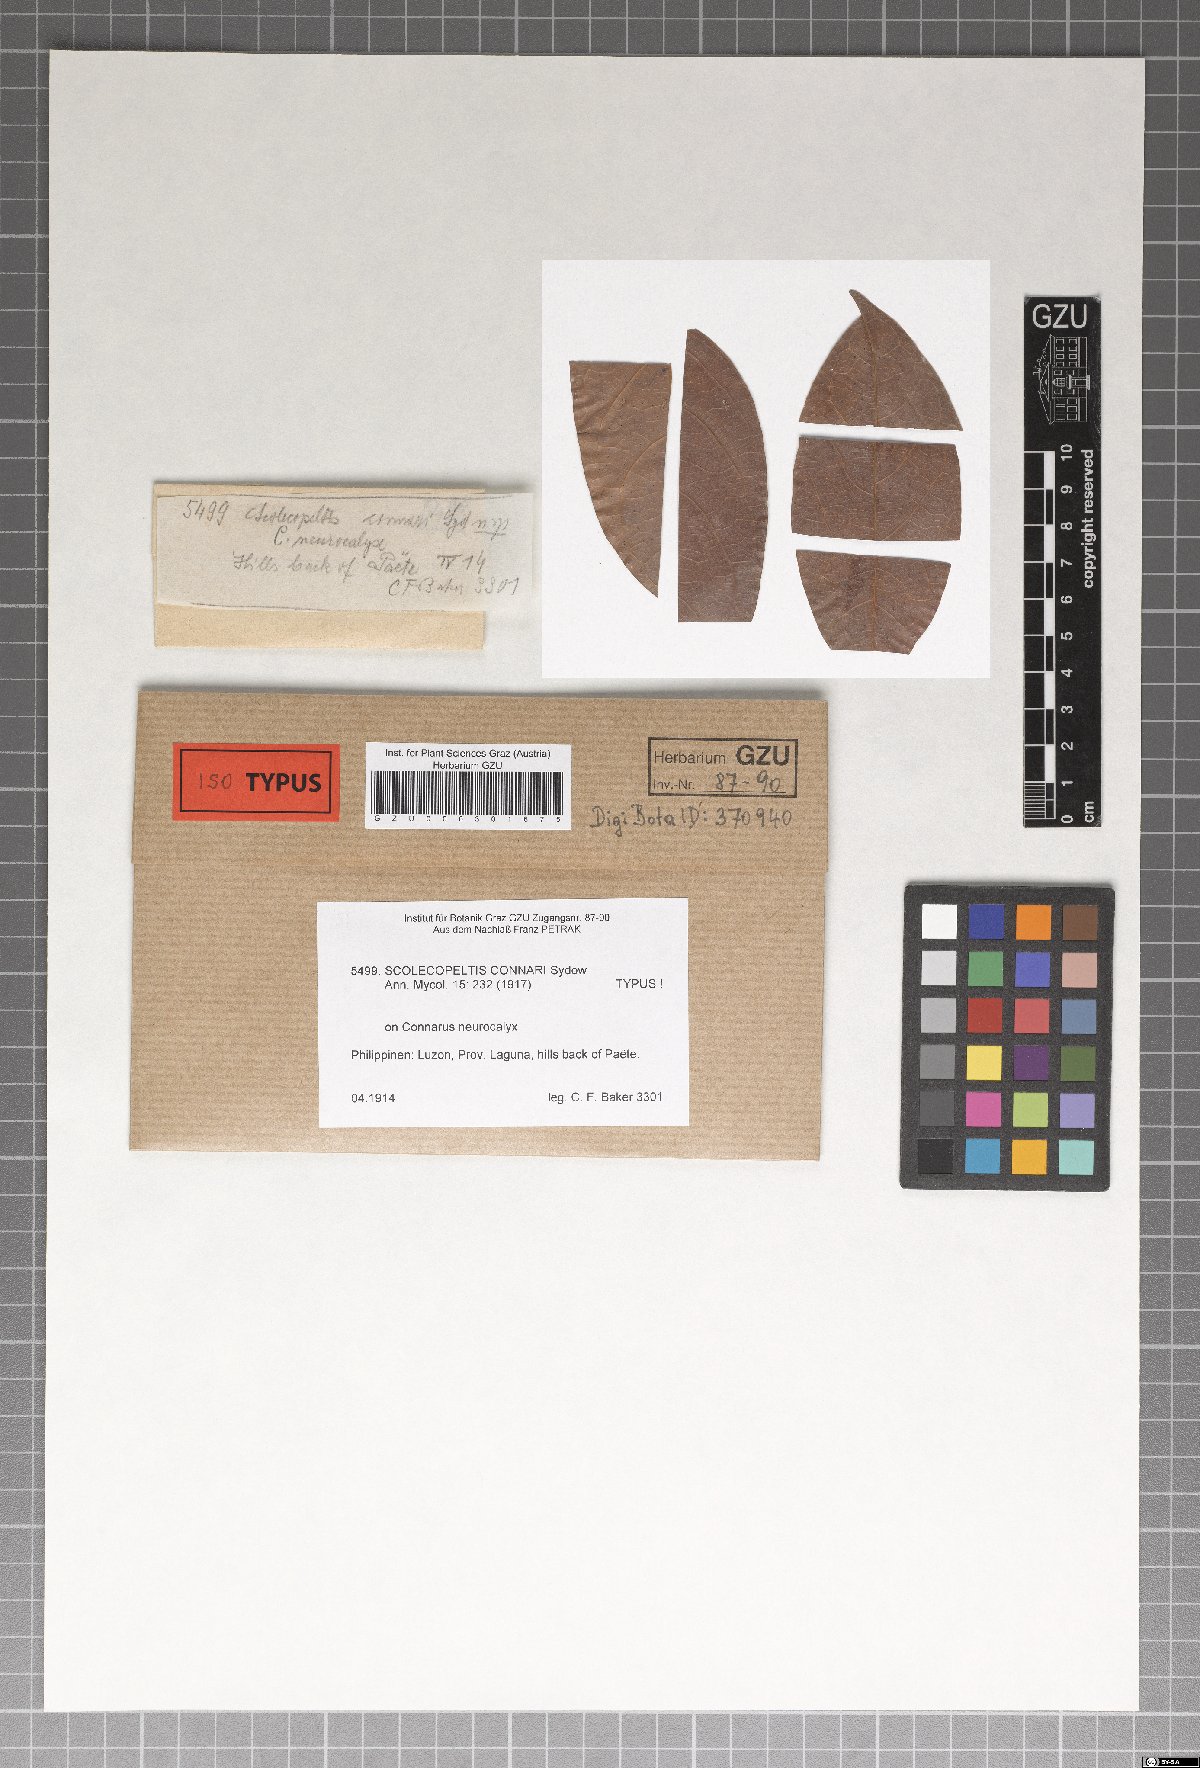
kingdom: Fungi
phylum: Ascomycota
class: Dothideomycetes
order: Microthyriales
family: Microthyriaceae
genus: Scolecopeltidium
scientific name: Scolecopeltidium connari
